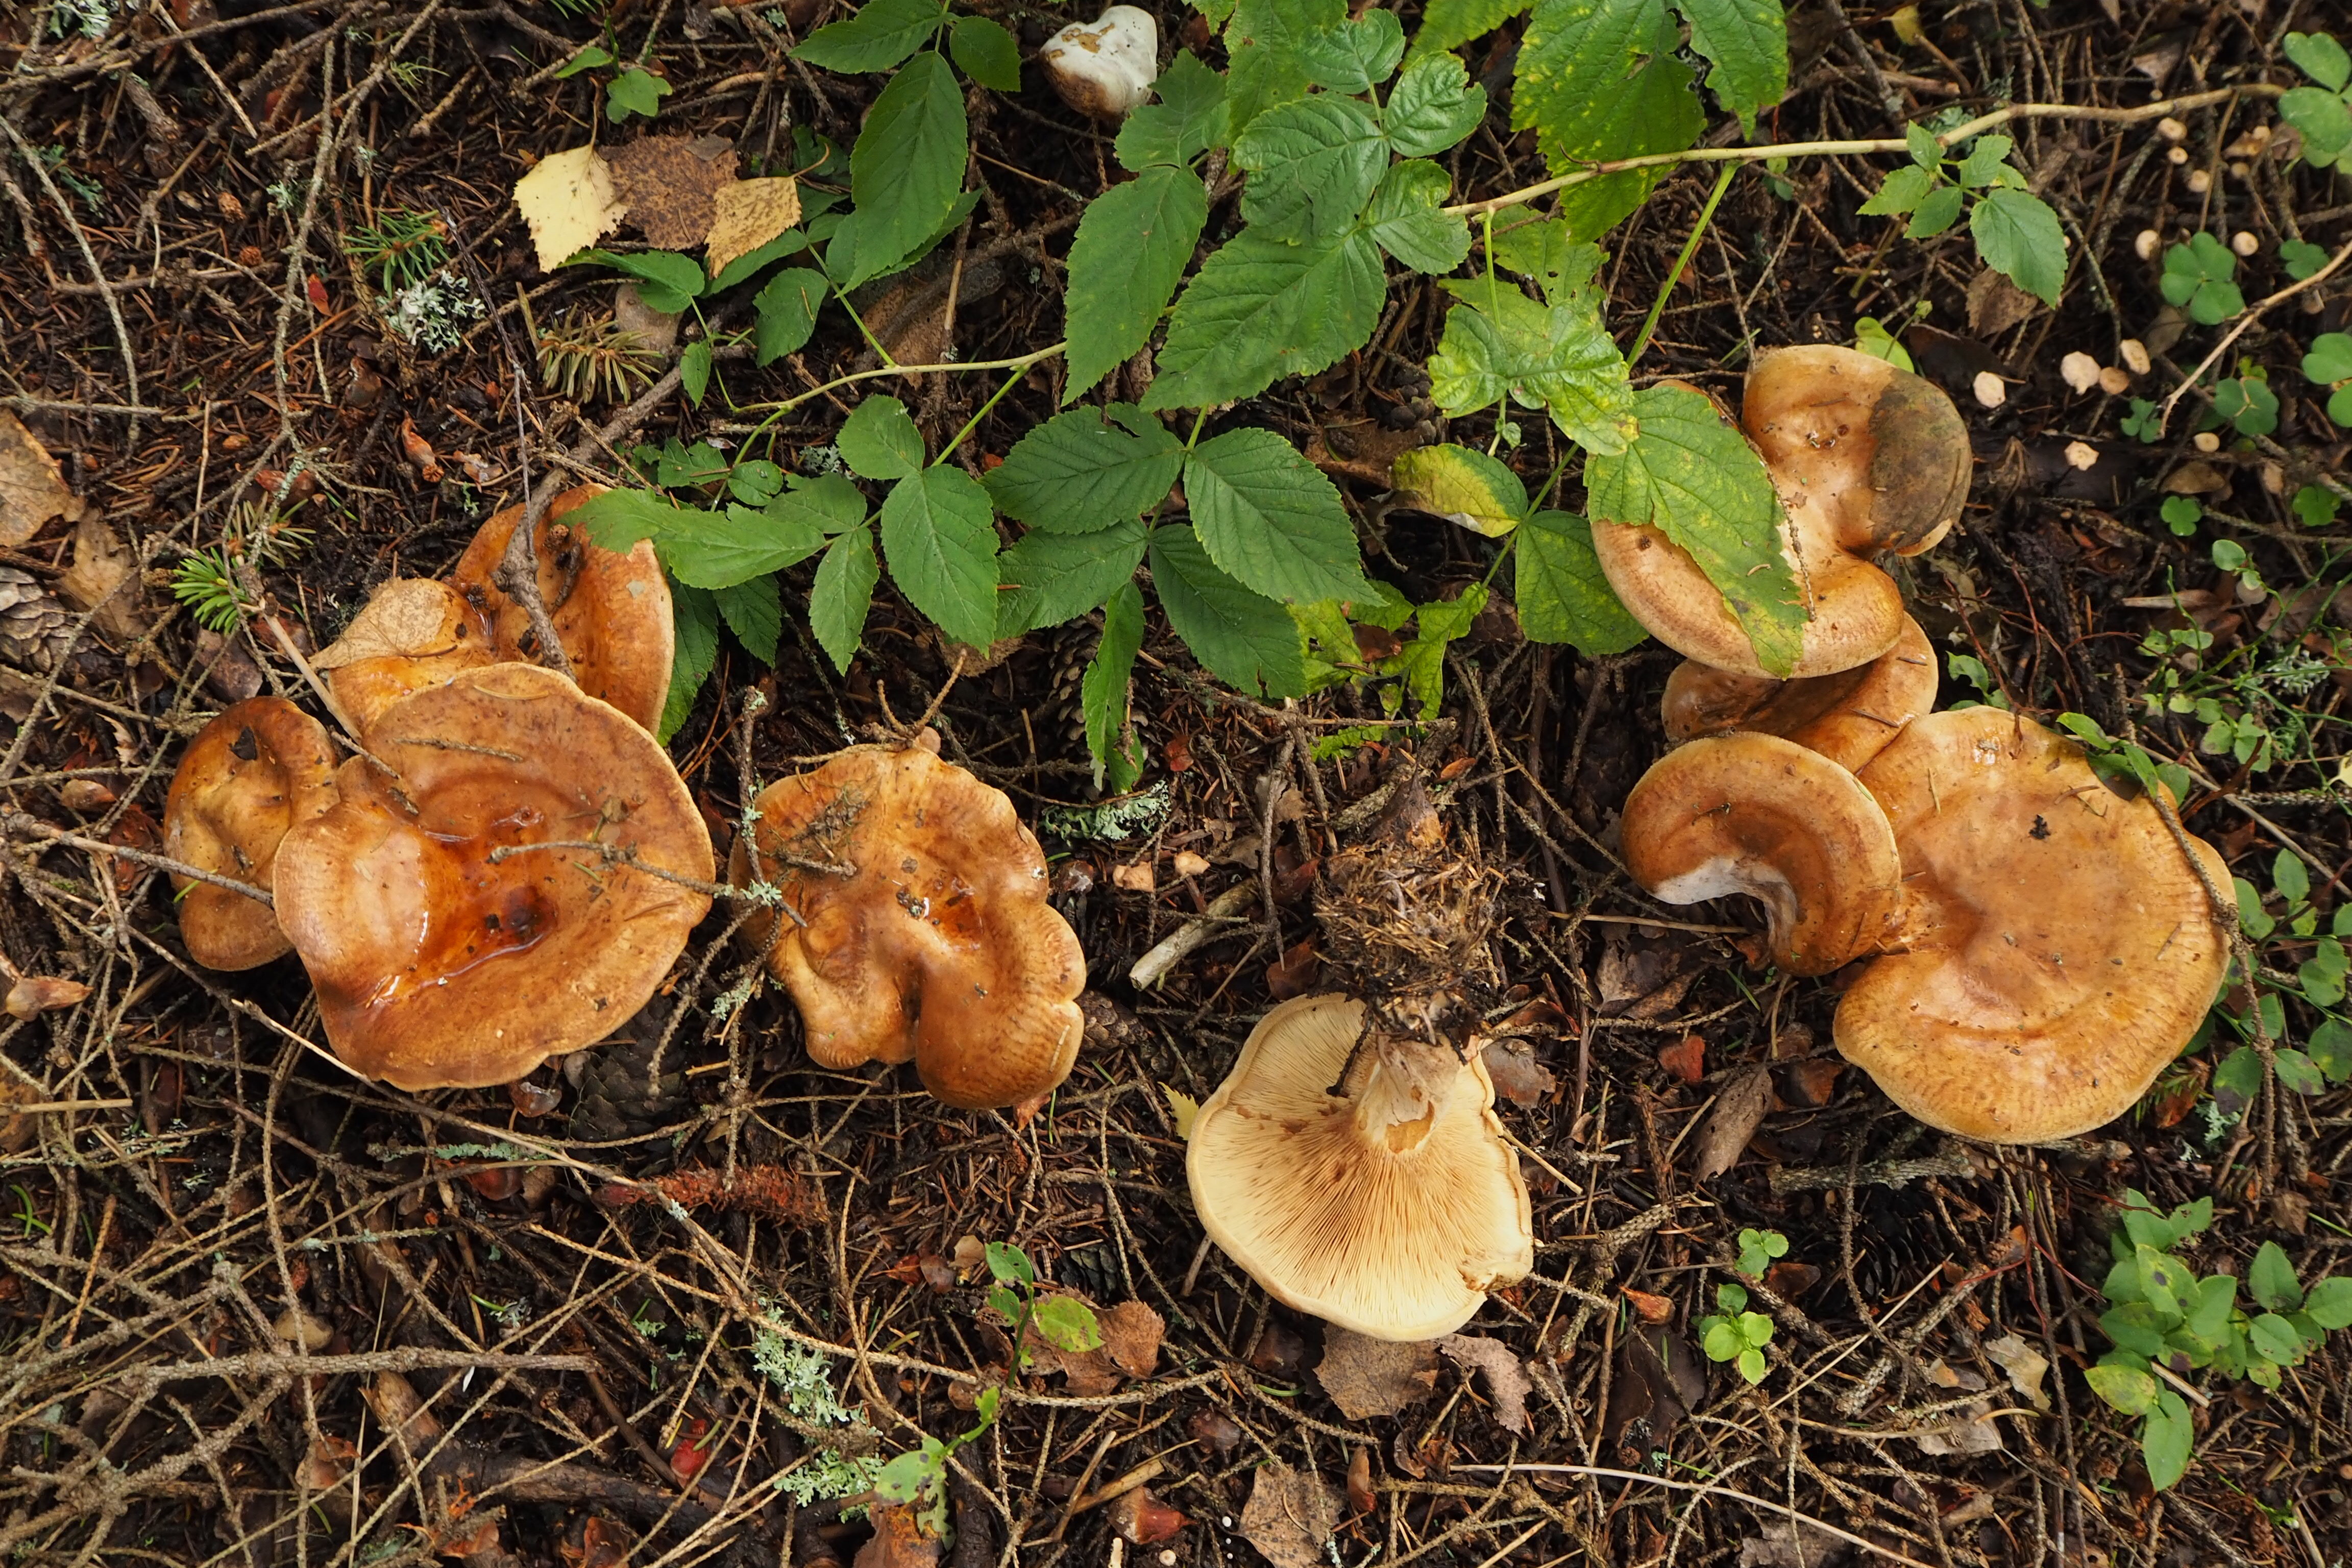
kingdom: Fungi
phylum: Basidiomycota
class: Agaricomycetes
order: Boletales
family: Paxillaceae
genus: Paxillus
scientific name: Paxillus involutus
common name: Brown roll rim
